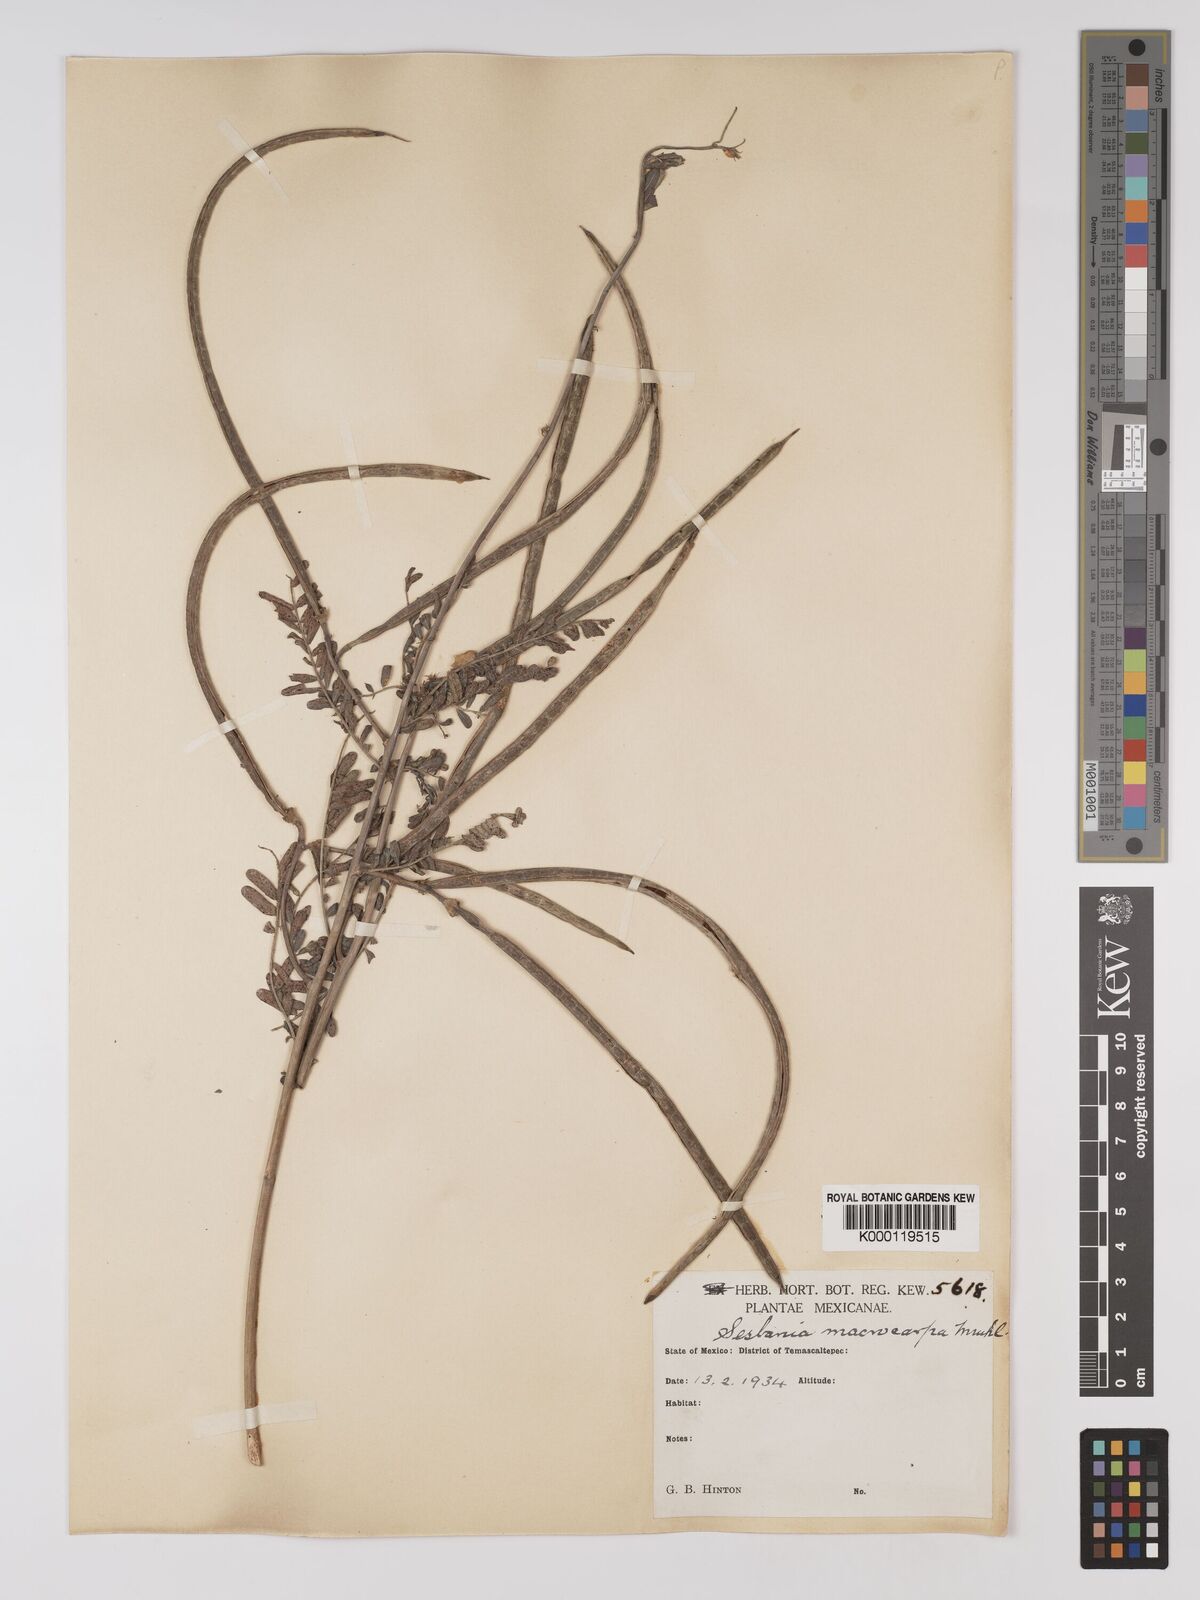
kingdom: Plantae
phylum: Tracheophyta
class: Magnoliopsida
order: Fabales
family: Fabaceae
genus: Sesbania
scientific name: Sesbania vesicaria
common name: Bagpod
